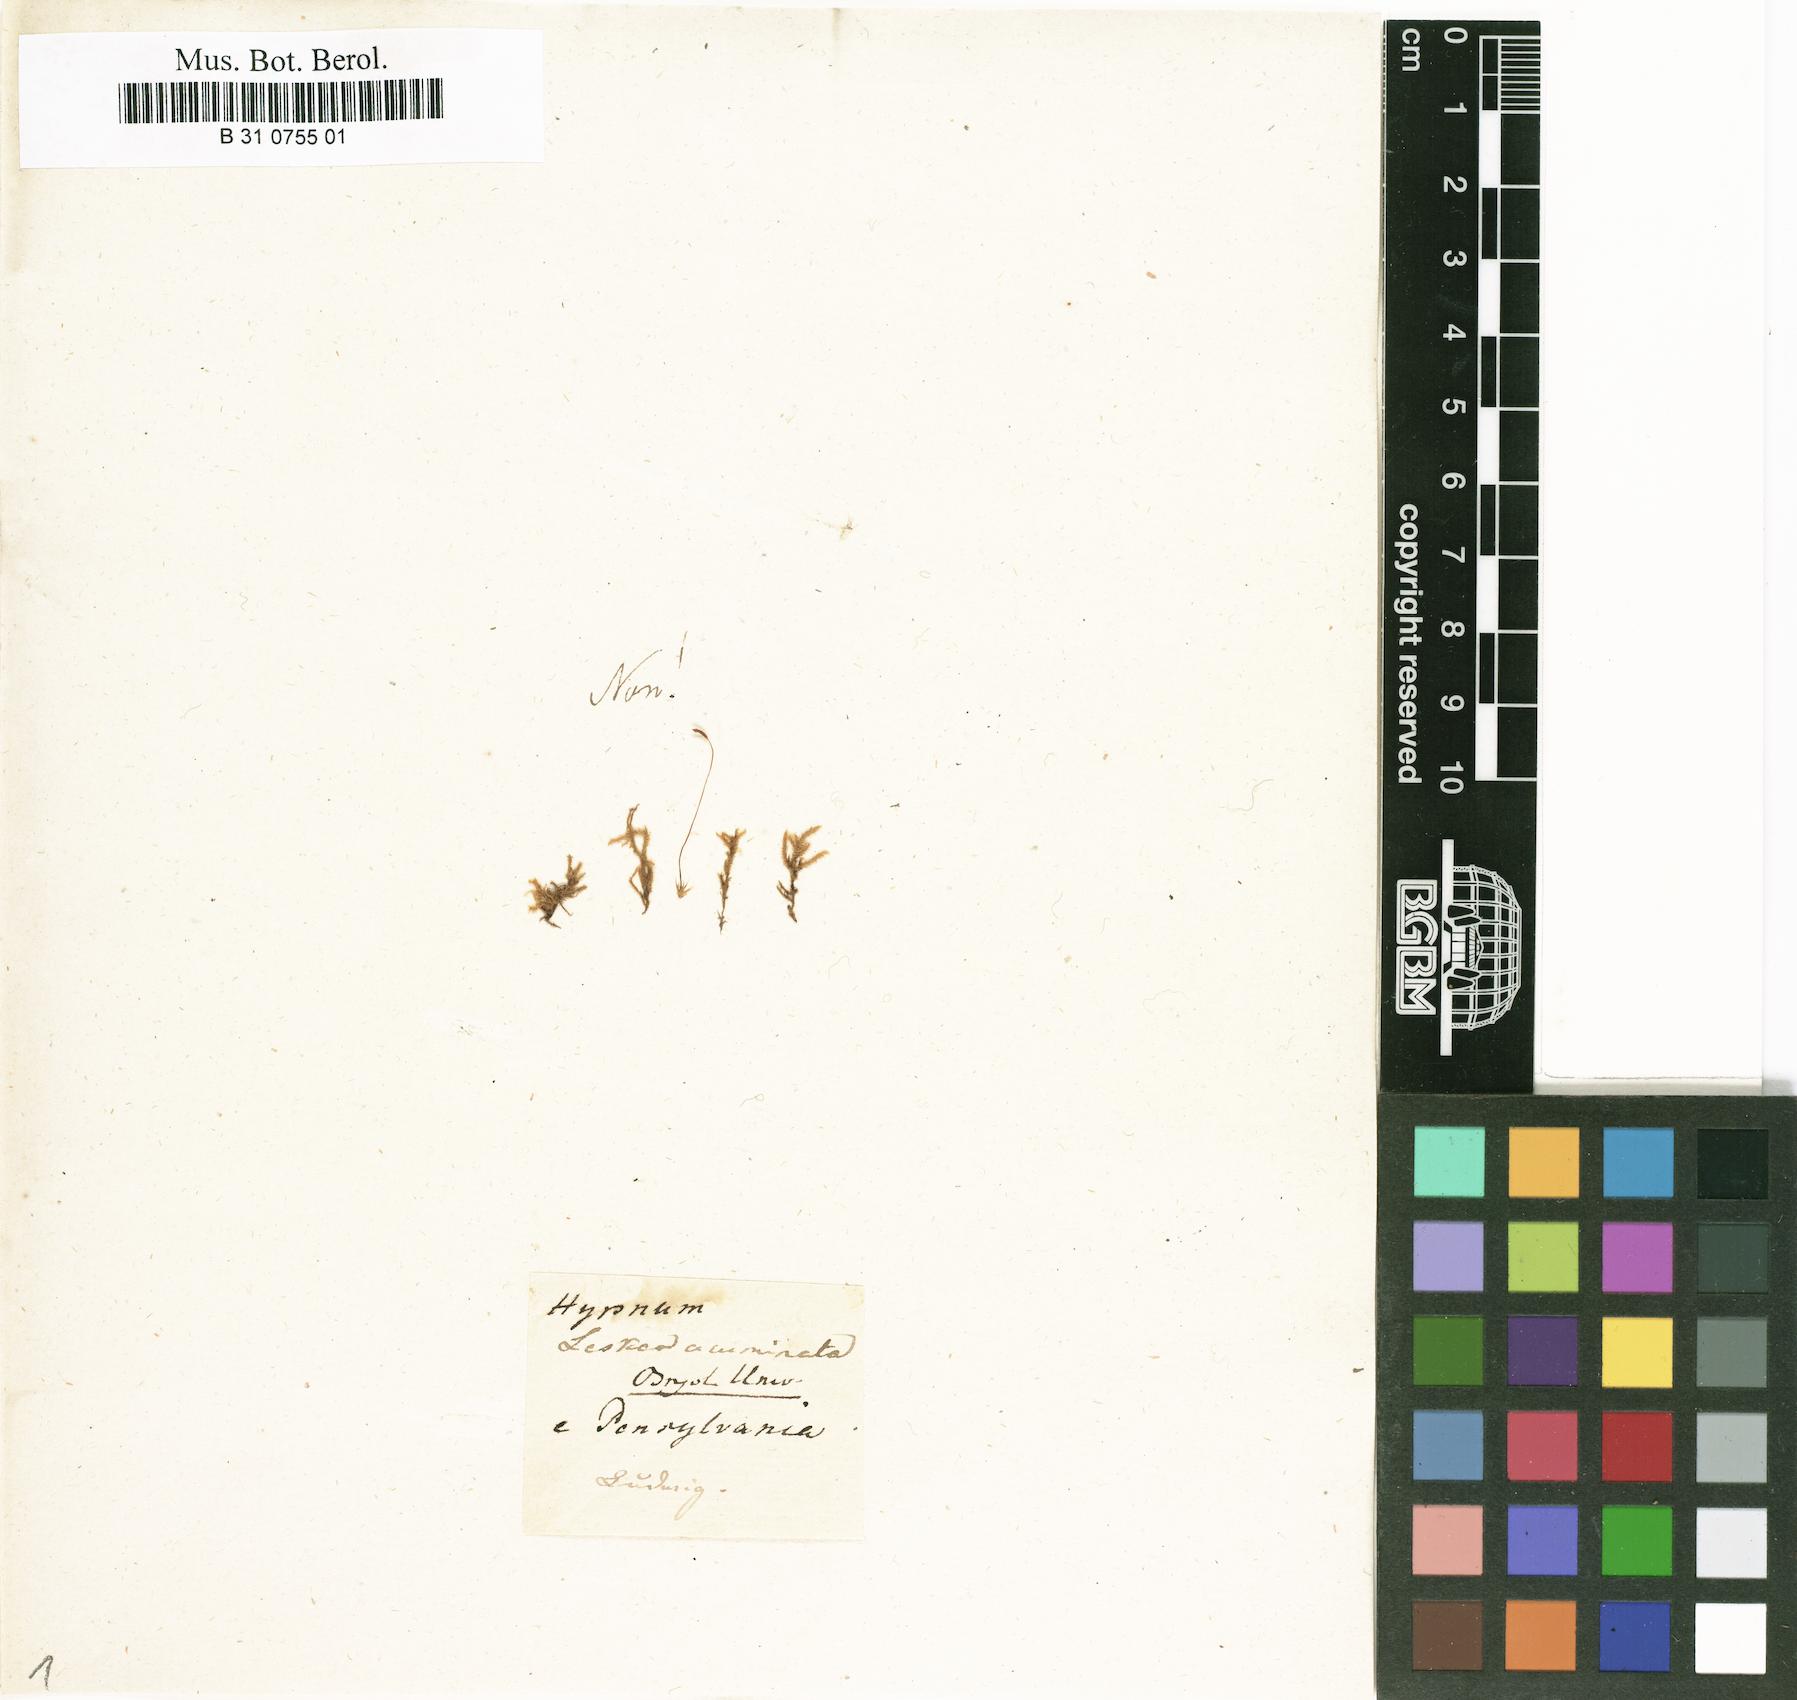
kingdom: Plantae
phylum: Bryophyta
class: Bryopsida
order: Hypnales
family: Brachytheciaceae
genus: Brachythecium
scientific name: Brachythecium acuminatum
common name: Acuminate ragged moss
